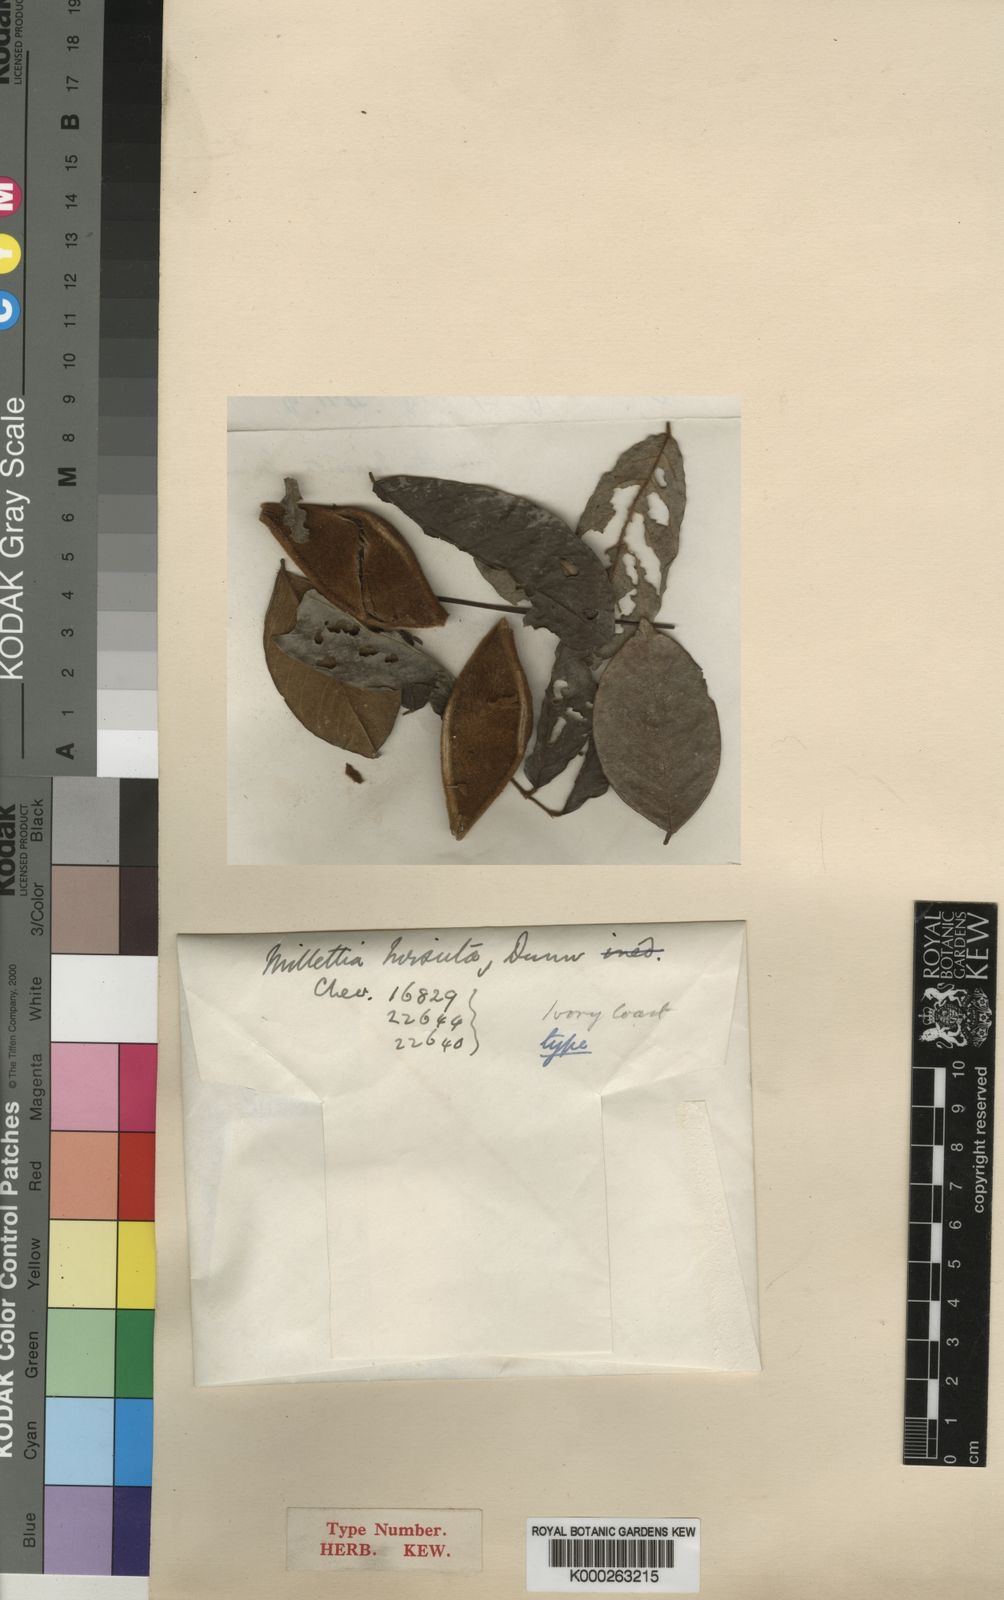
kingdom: Plantae
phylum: Tracheophyta
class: Magnoliopsida
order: Fabales
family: Fabaceae
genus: Platysepalum
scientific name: Platysepalum hirsutum
